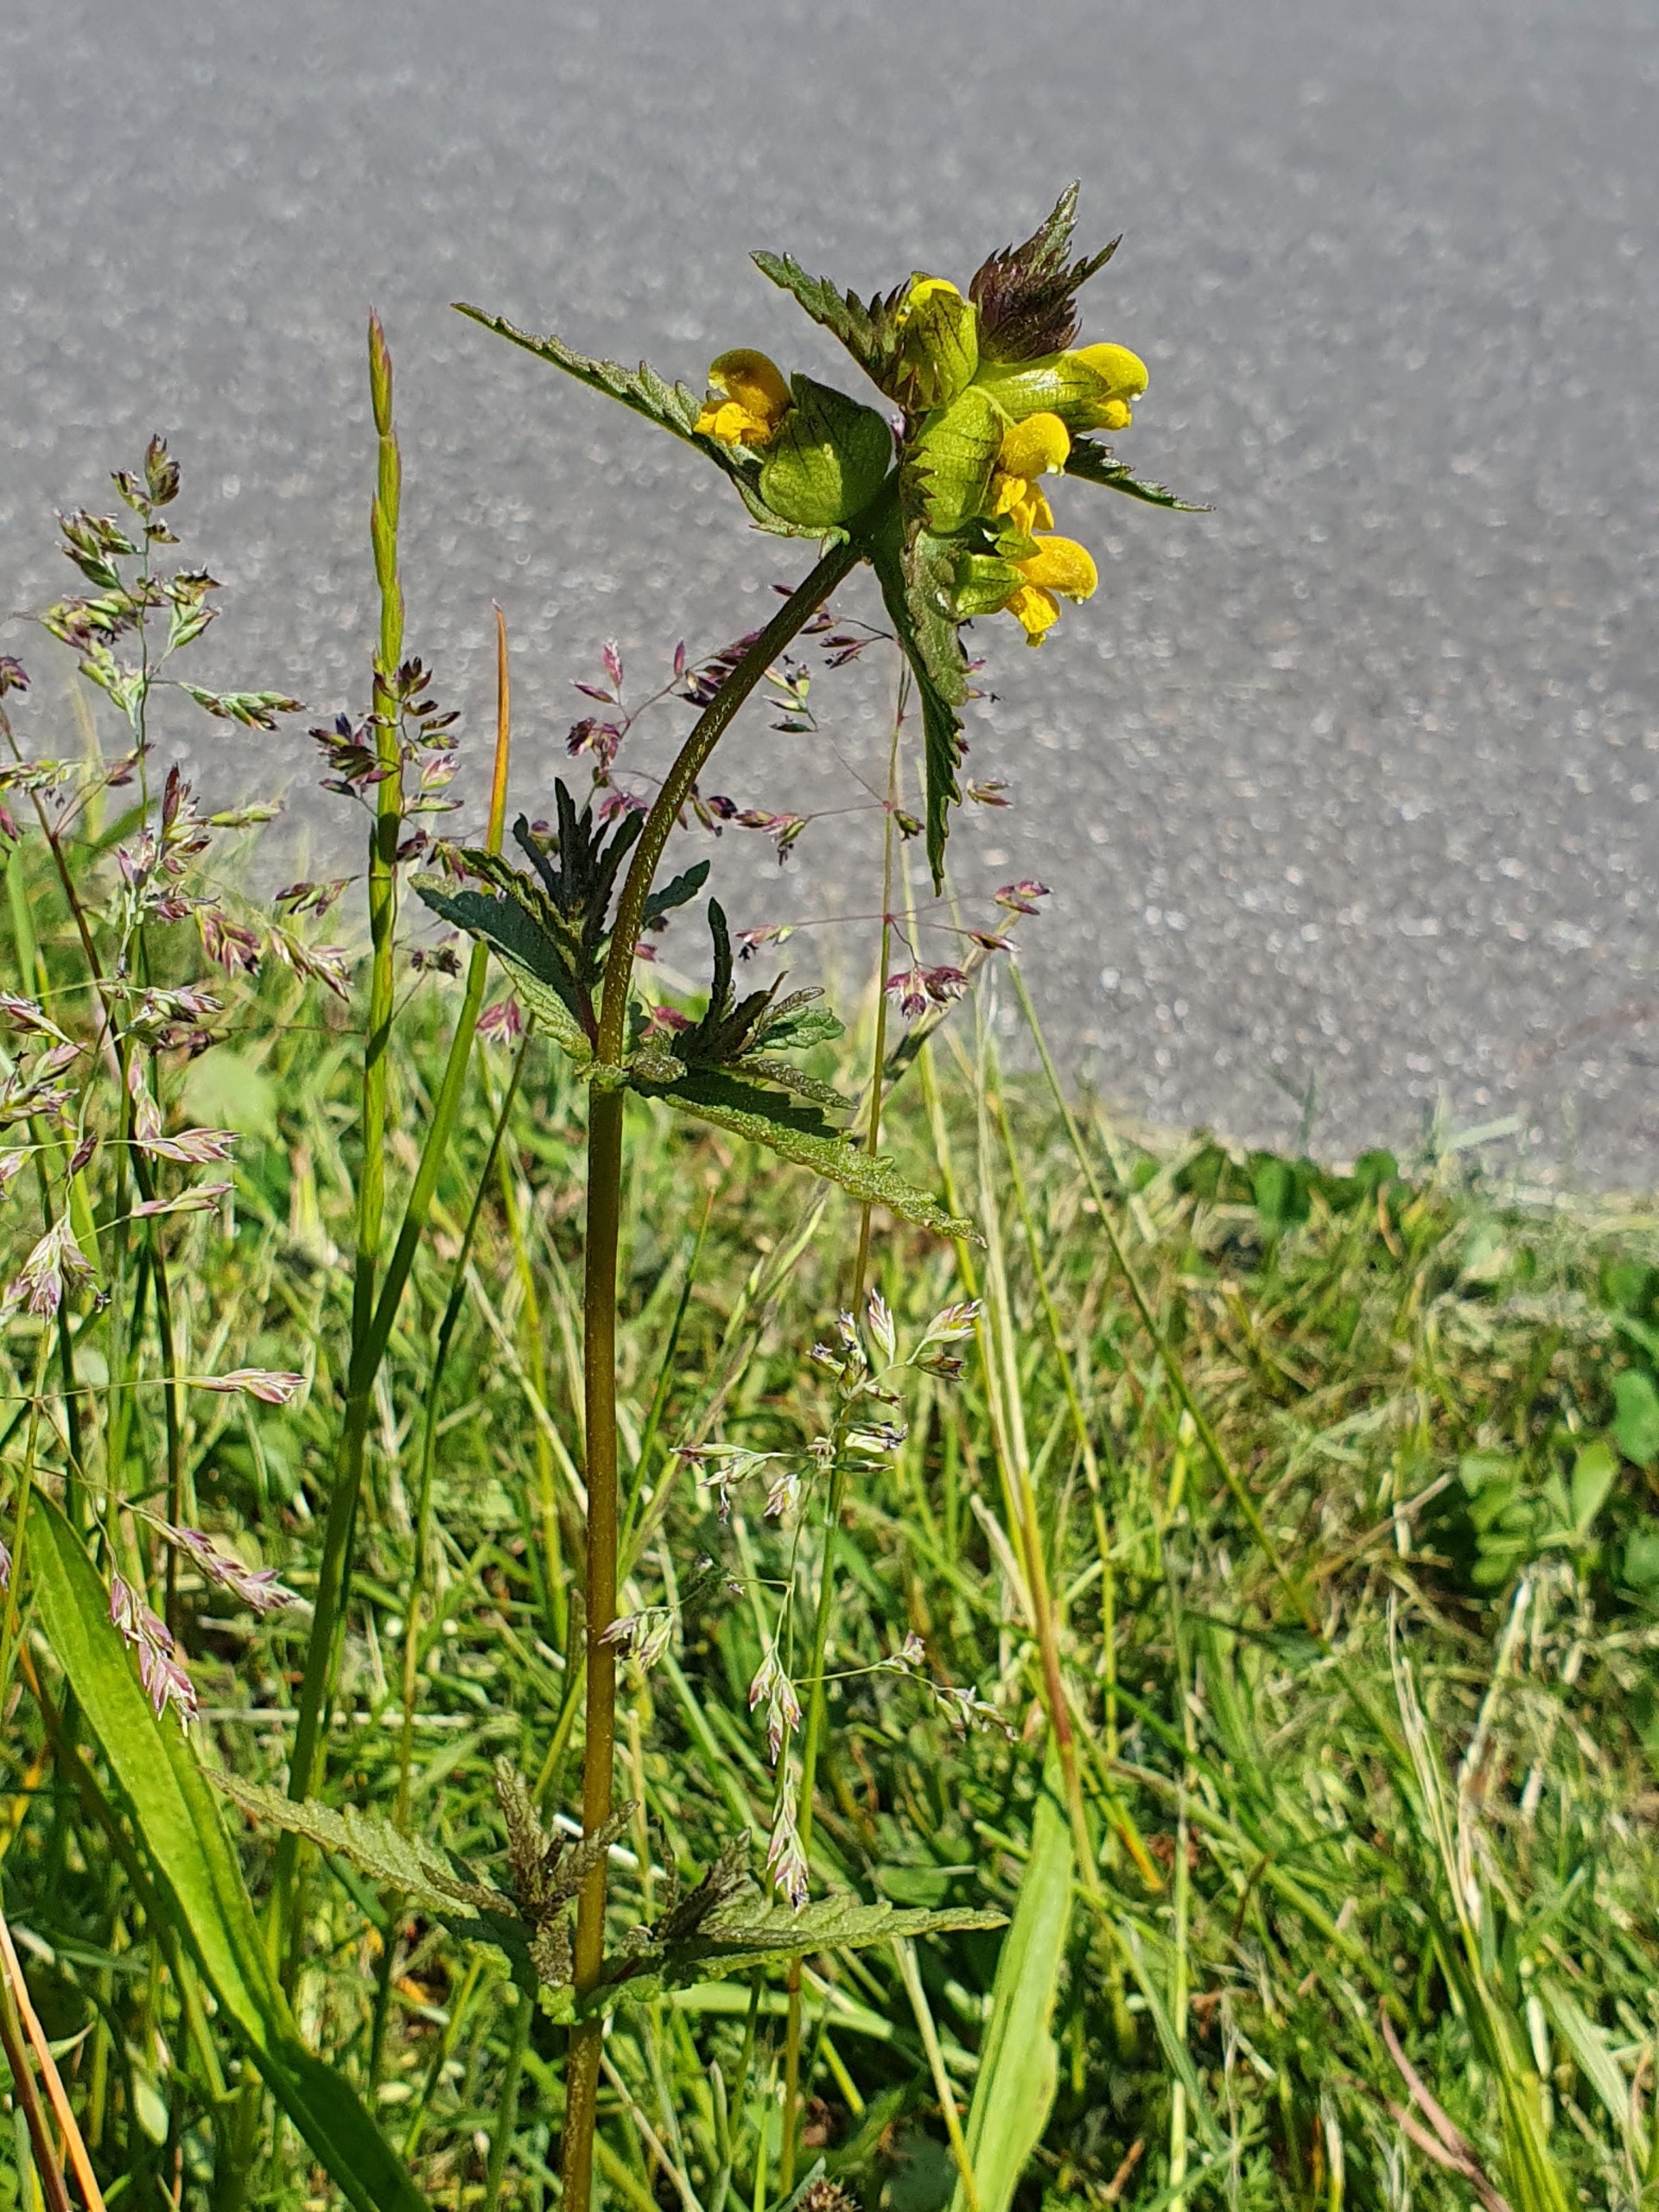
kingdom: Plantae
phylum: Tracheophyta
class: Magnoliopsida
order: Lamiales
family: Orobanchaceae
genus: Rhinanthus
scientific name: Rhinanthus minor
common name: Liden skjaller
